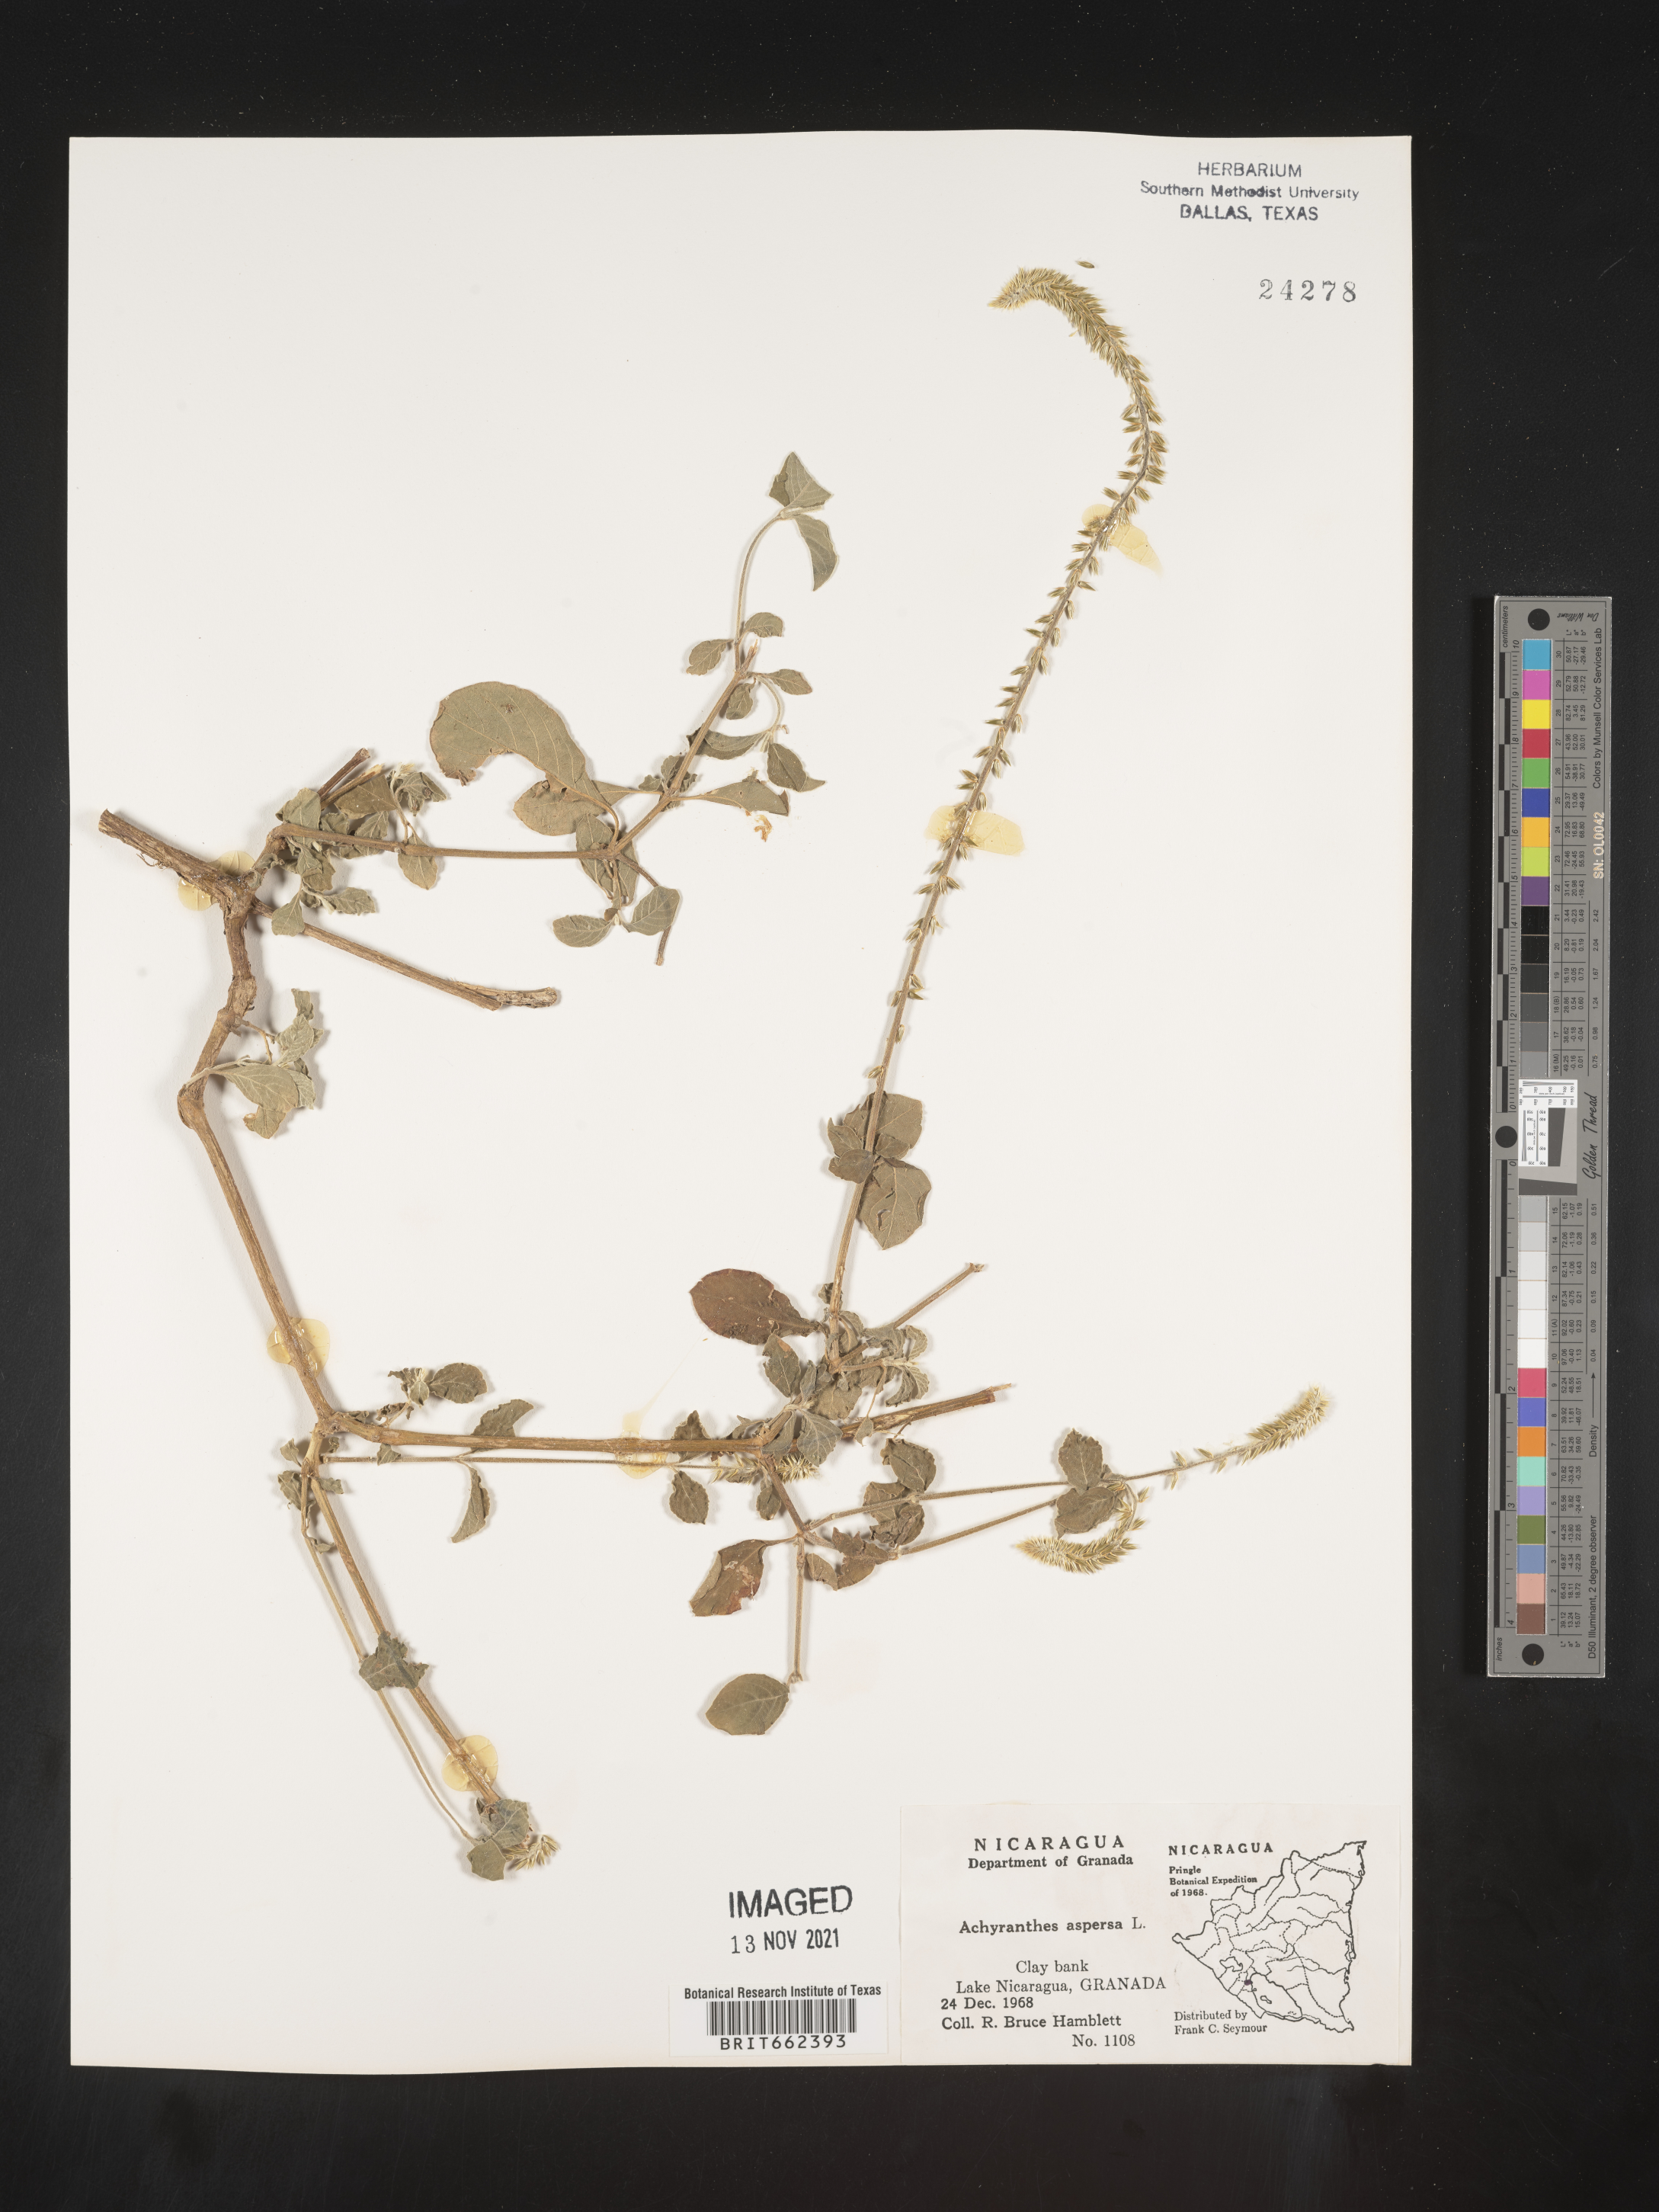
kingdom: Plantae
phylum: Tracheophyta
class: Magnoliopsida
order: Caryophyllales
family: Amaranthaceae
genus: Achyranthes
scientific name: Achyranthes
